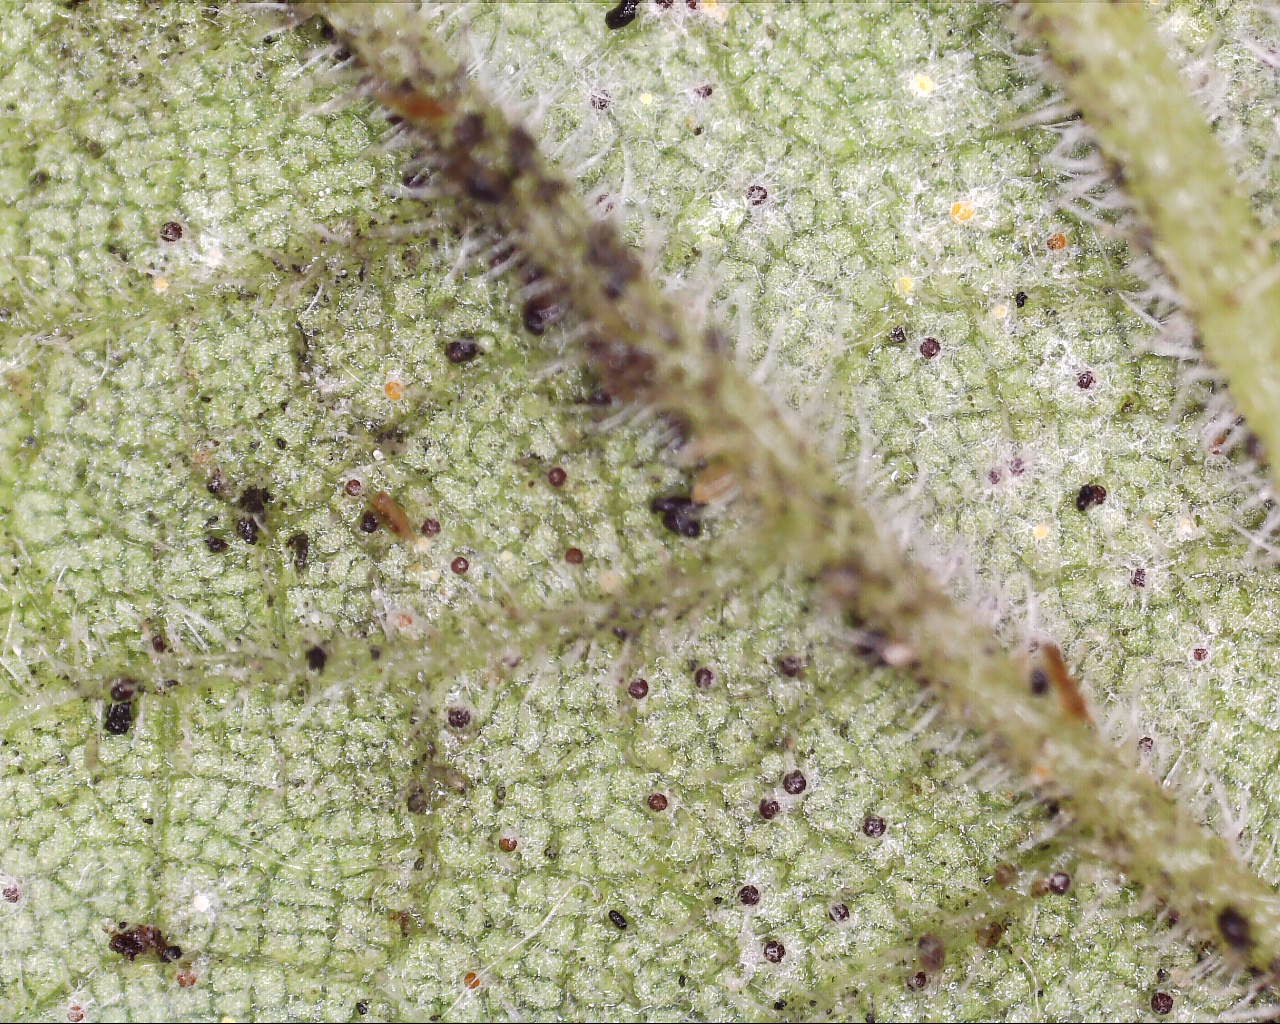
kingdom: Fungi
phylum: Ascomycota
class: Leotiomycetes
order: Helotiales
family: Erysiphaceae
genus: Erysiphe
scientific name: Erysiphe urticae
